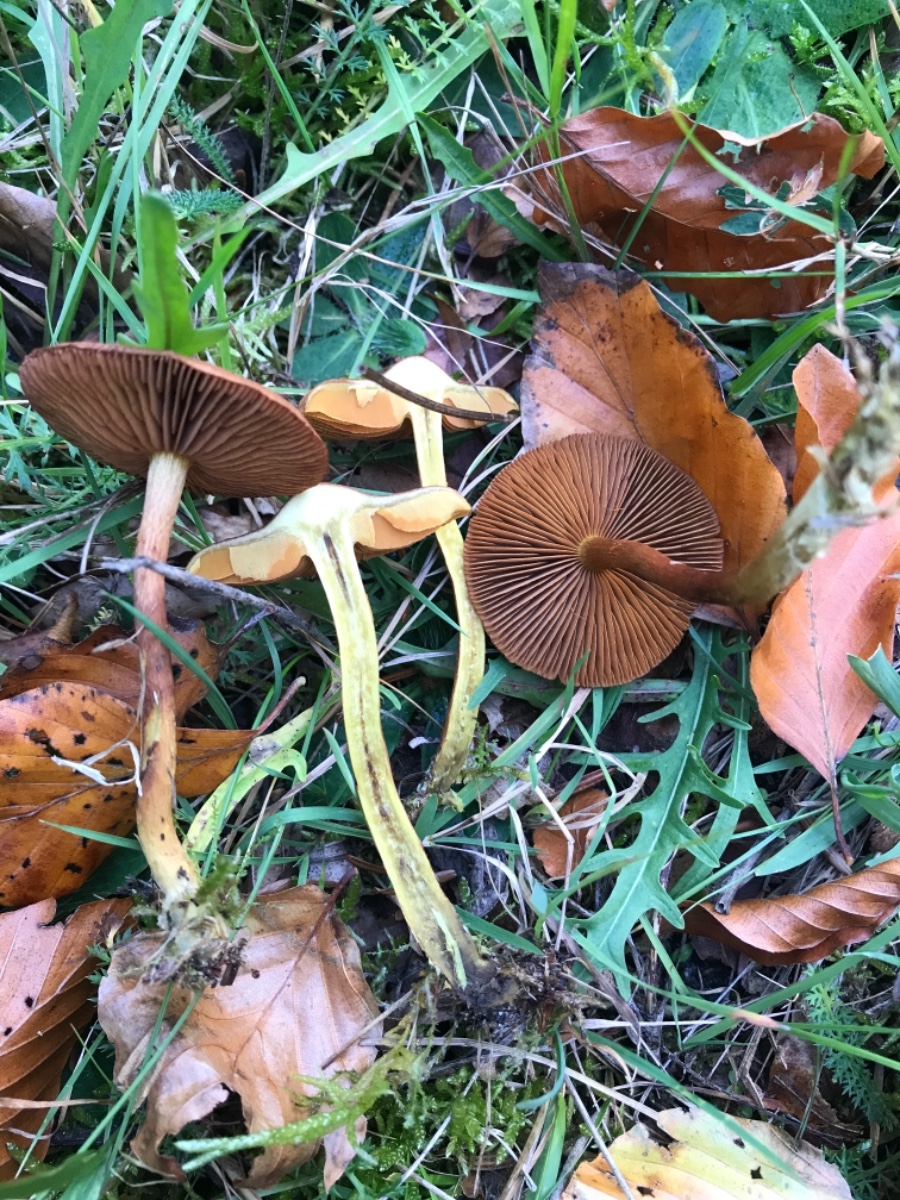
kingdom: Fungi
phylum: Basidiomycota
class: Agaricomycetes
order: Agaricales
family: Cortinariaceae
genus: Cortinarius
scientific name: Cortinarius
